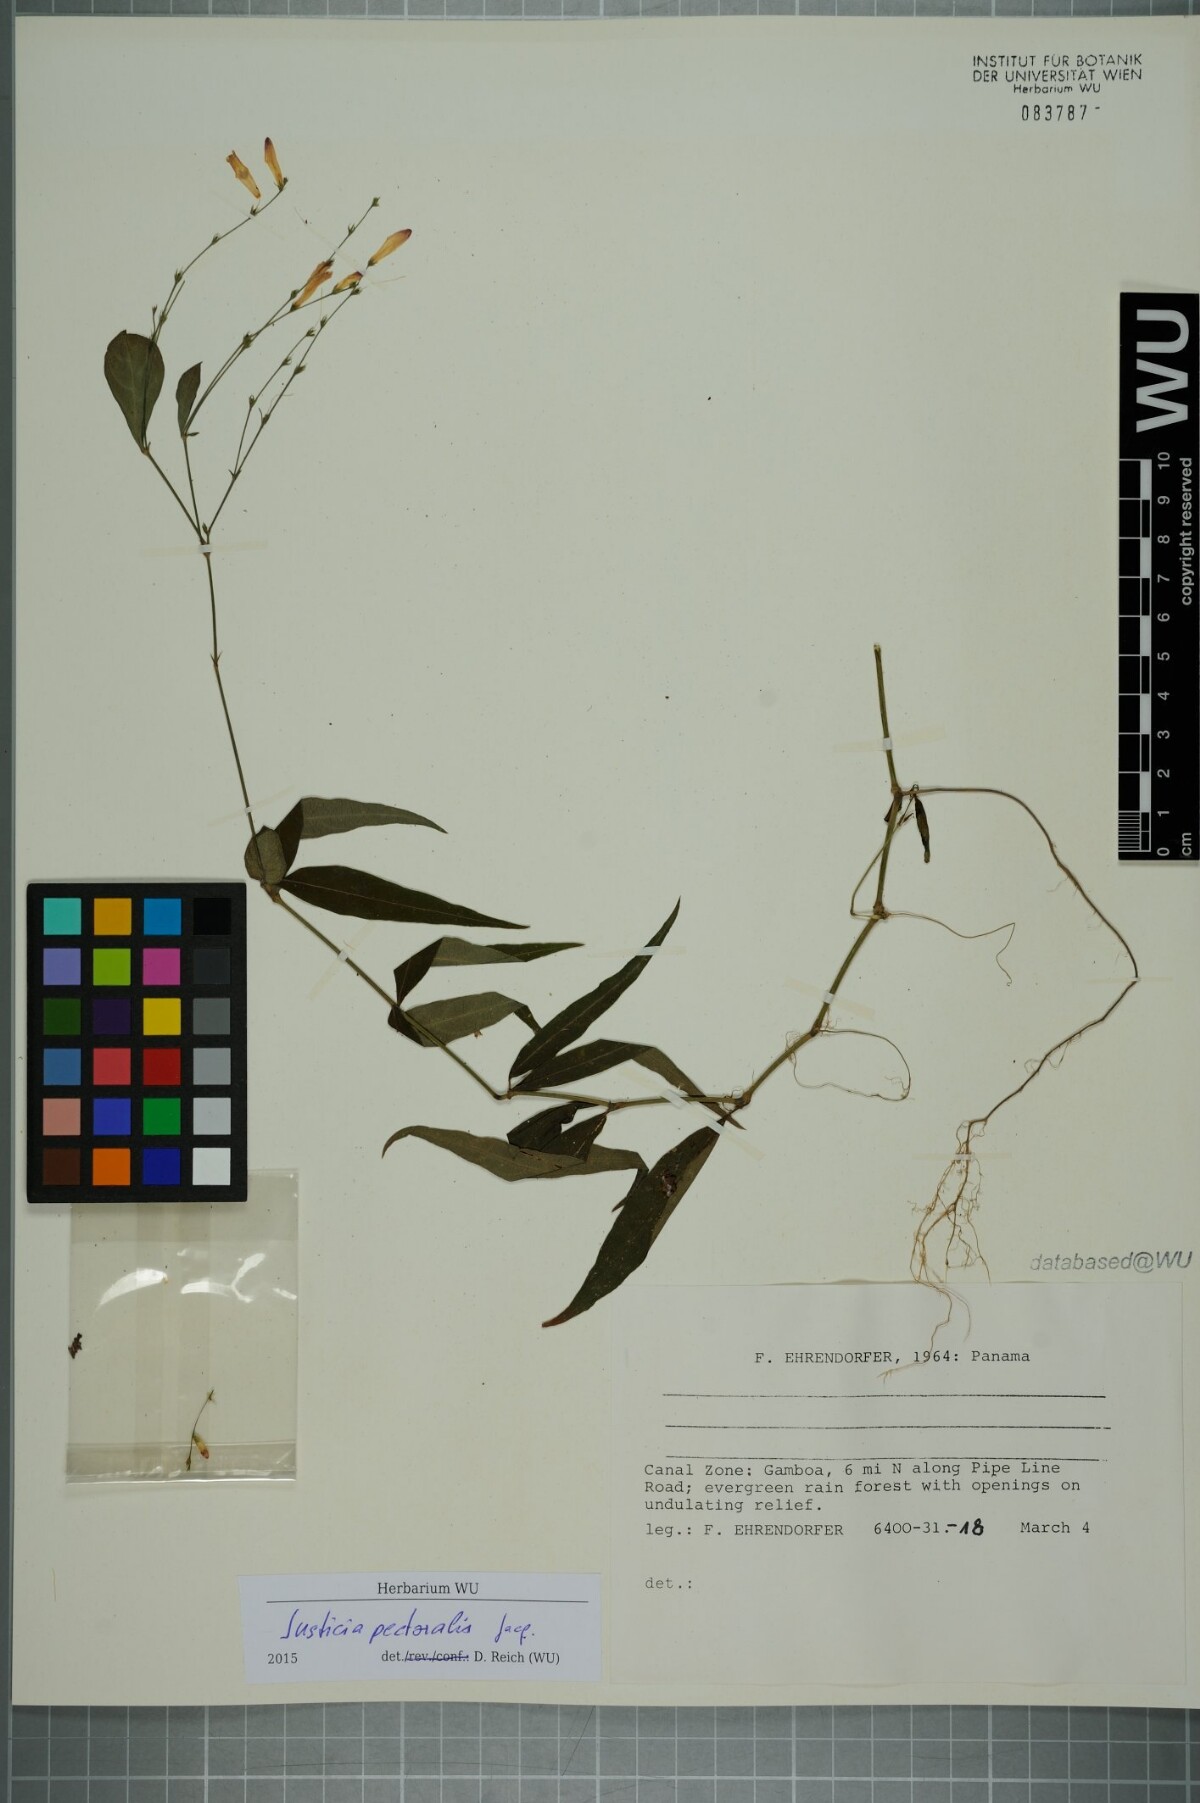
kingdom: Plantae
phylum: Tracheophyta
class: Magnoliopsida
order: Lamiales
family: Acanthaceae
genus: Dianthera
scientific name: Dianthera pectoralis
